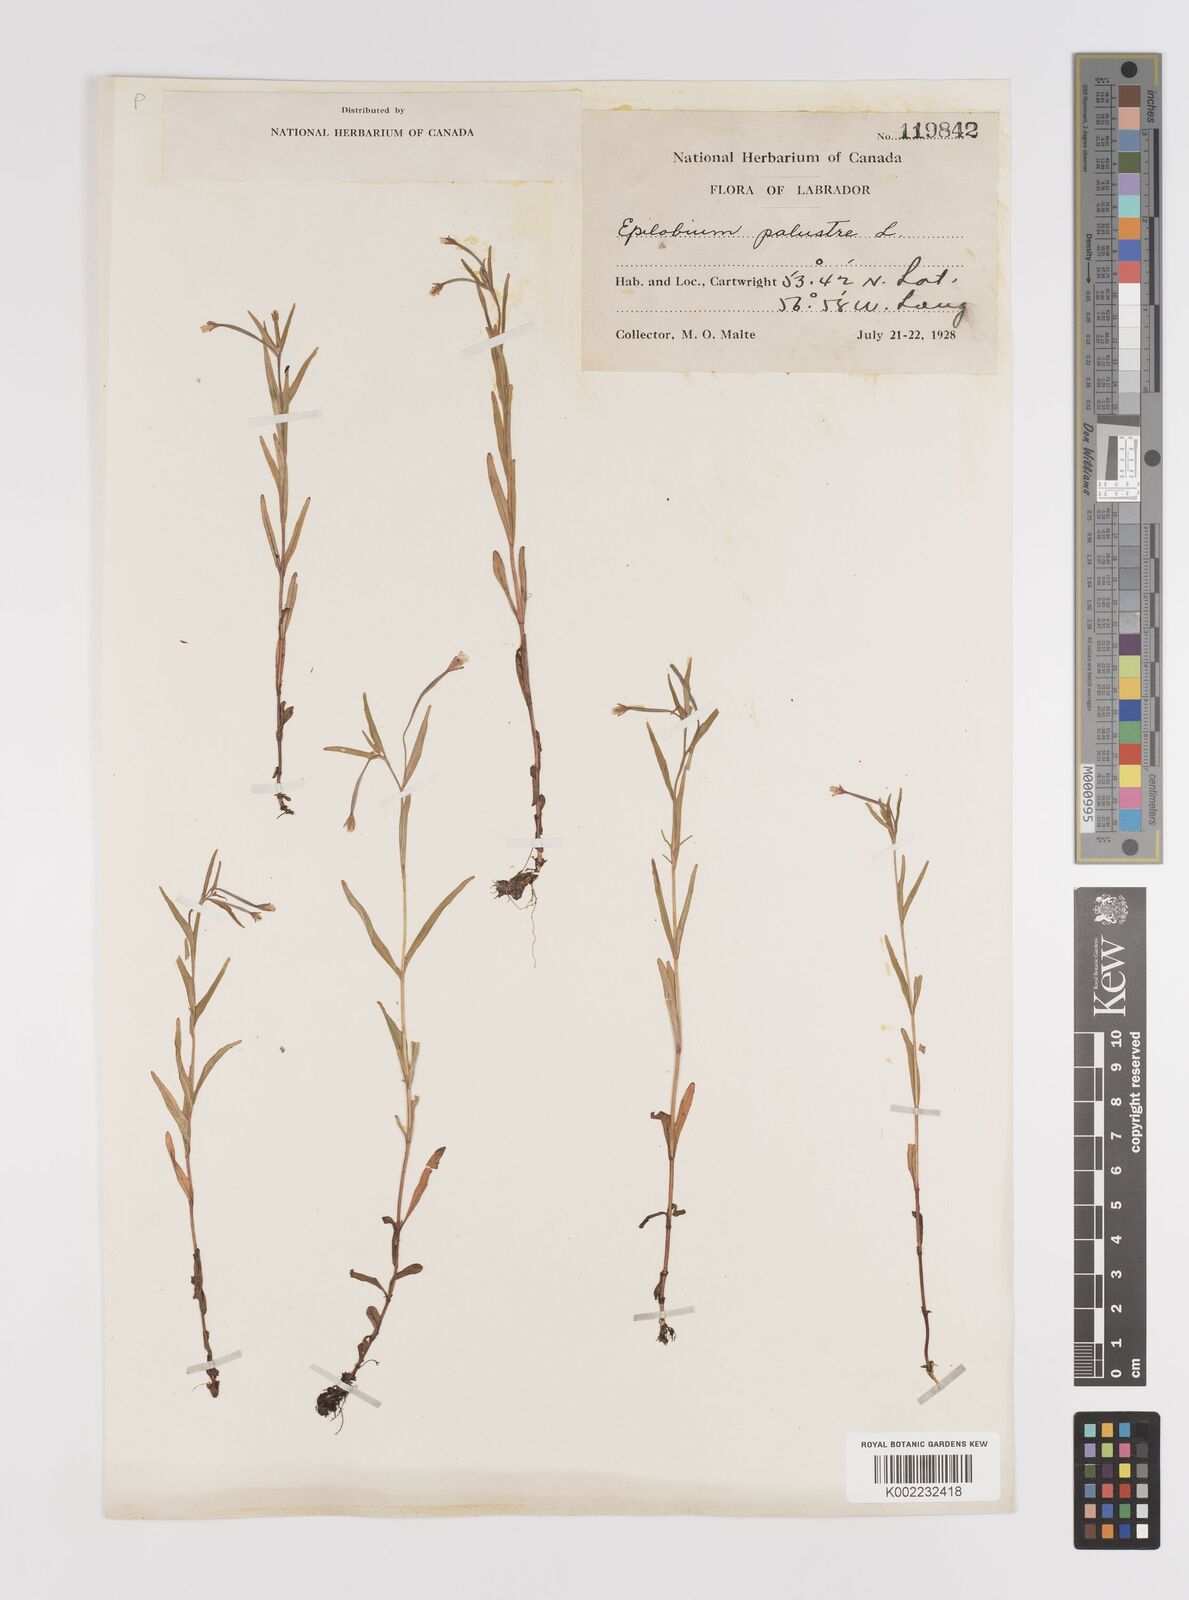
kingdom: Plantae
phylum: Tracheophyta
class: Magnoliopsida
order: Myrtales
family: Onagraceae
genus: Epilobium
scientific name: Epilobium palustre
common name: Marsh willowherb
